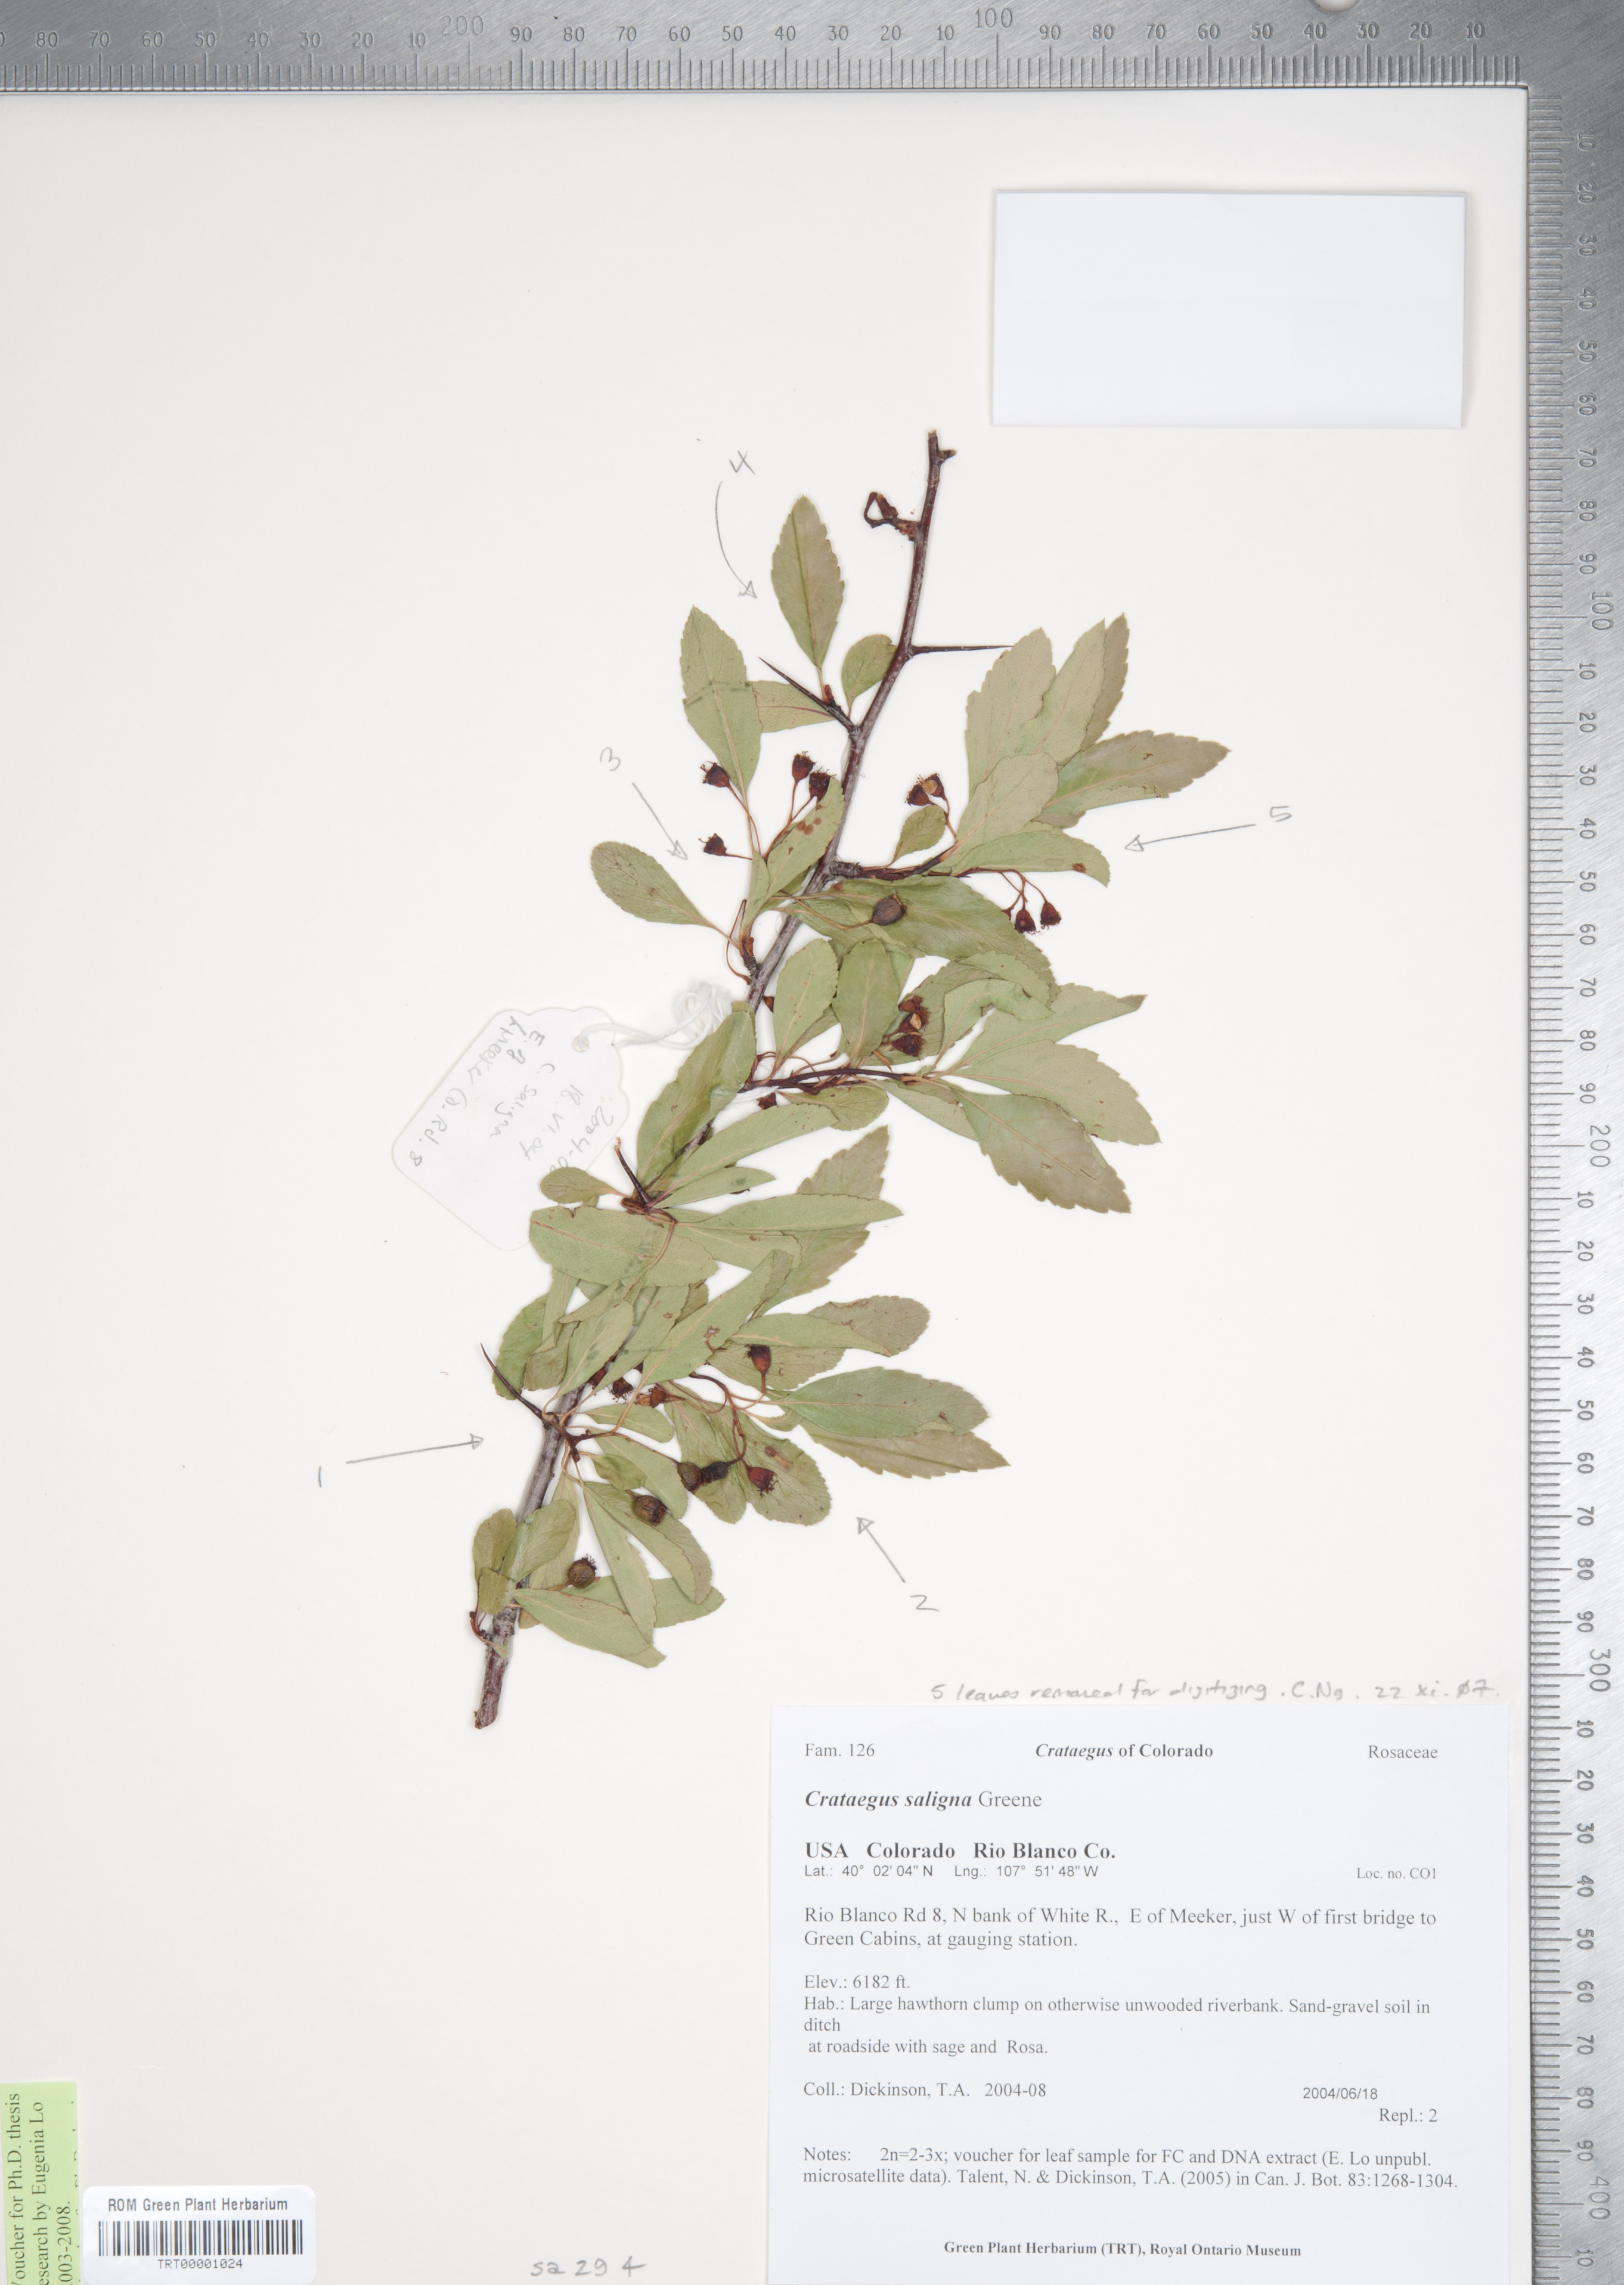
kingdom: Plantae
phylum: Tracheophyta
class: Magnoliopsida
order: Rosales
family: Rosaceae
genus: Crataegus
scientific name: Crataegus saligna
